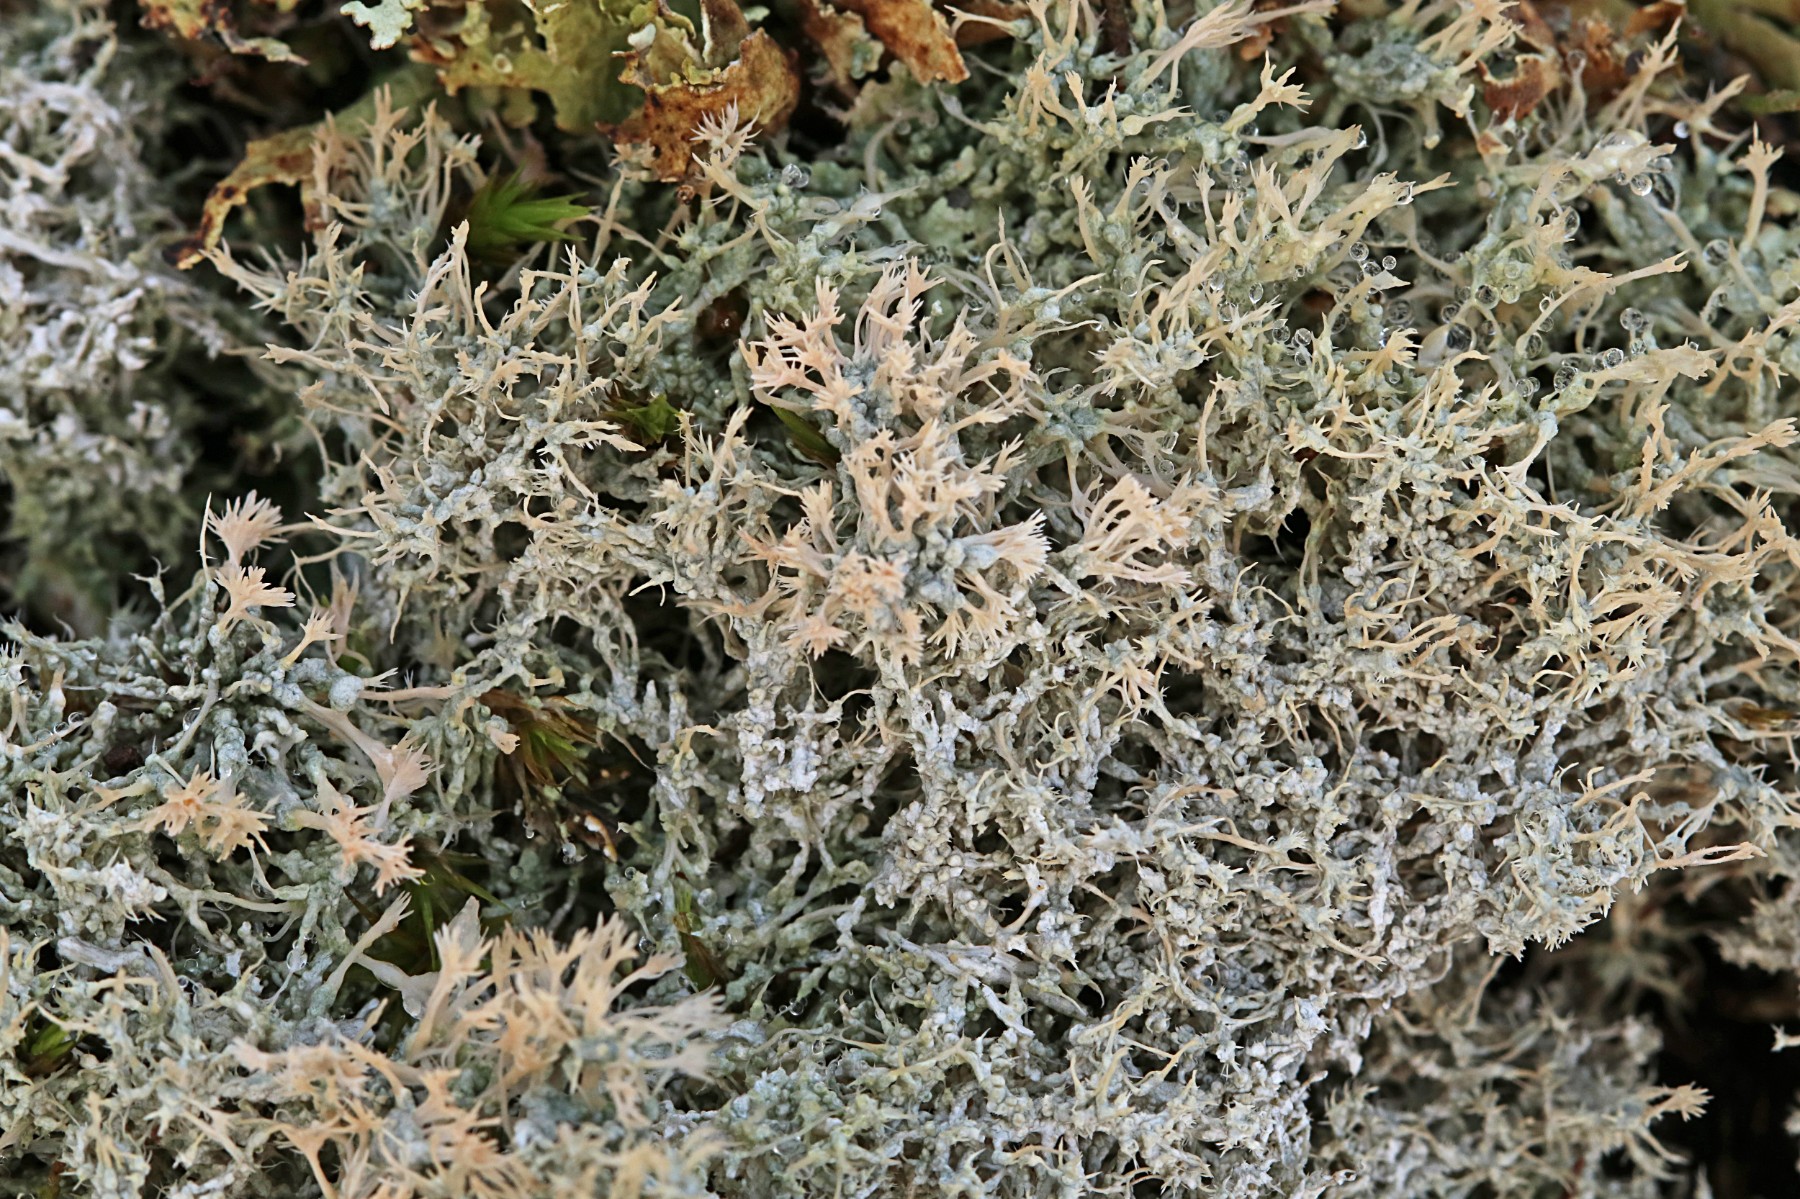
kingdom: Fungi
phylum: Ascomycota
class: Lecanoromycetes
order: Pertusariales
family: Ochrolechiaceae
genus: Ochrolechia
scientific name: Ochrolechia frigida
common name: fjeld-blegskivelav
